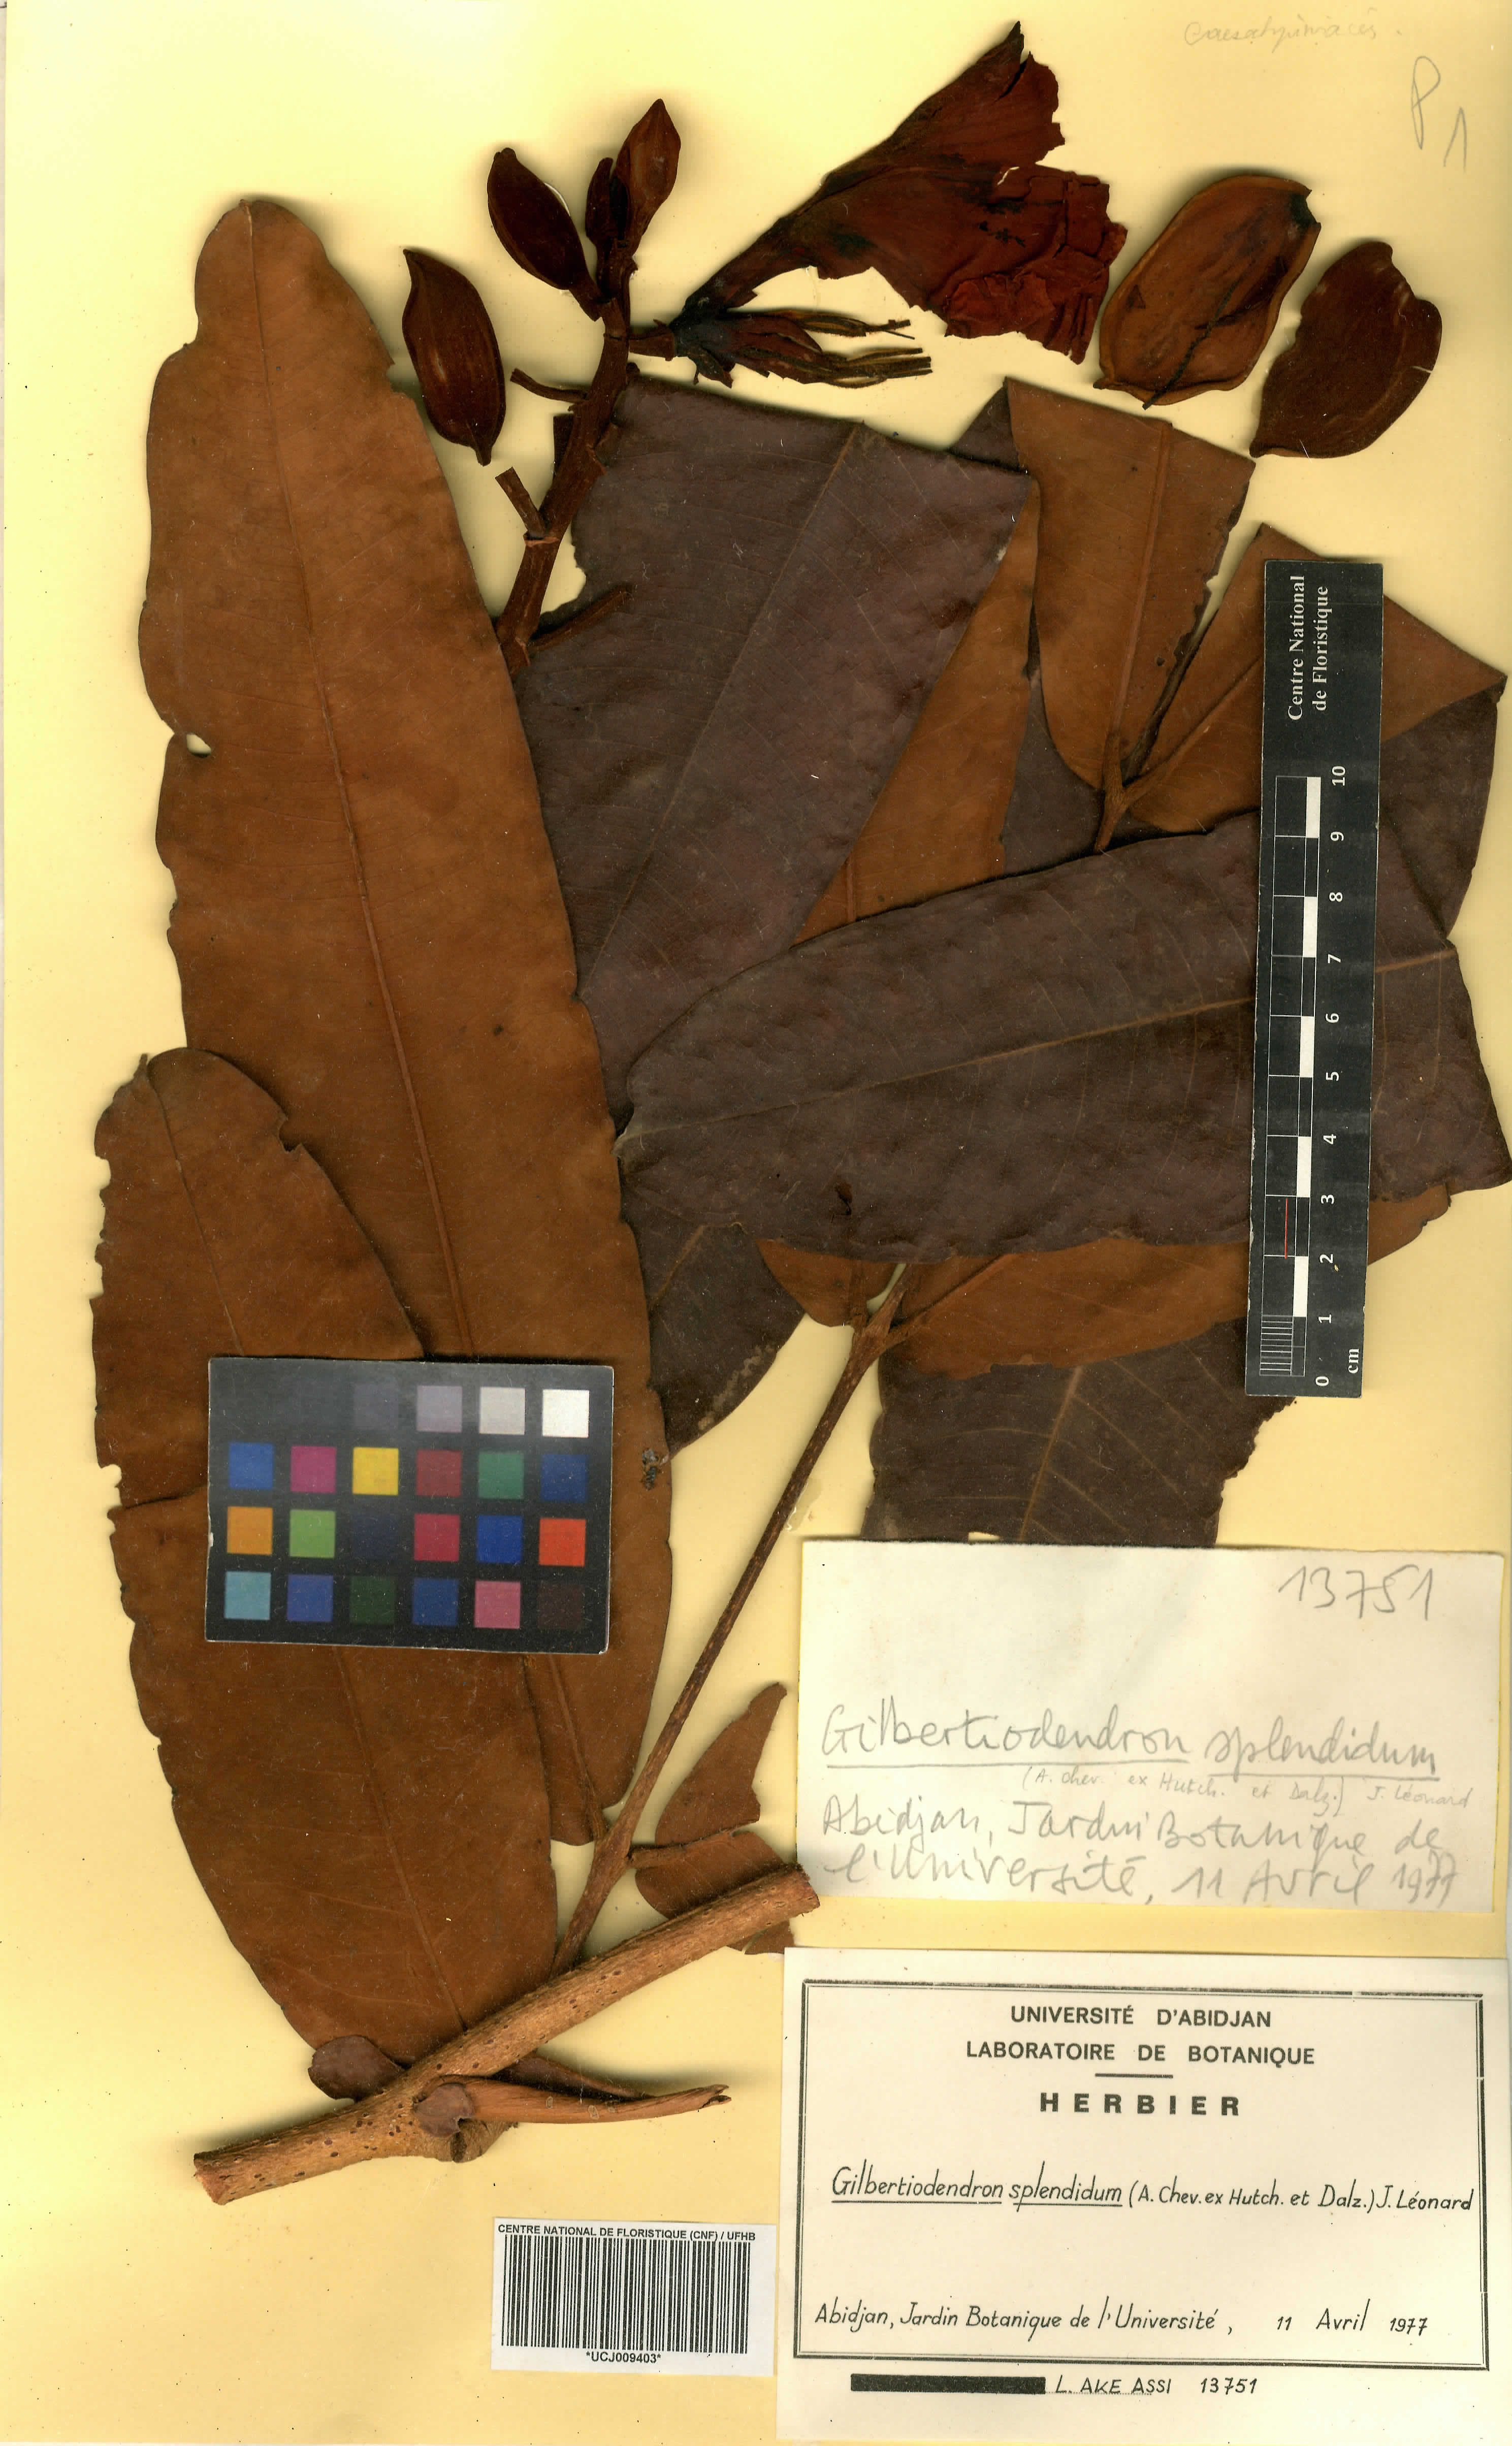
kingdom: Plantae
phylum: Tracheophyta
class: Magnoliopsida
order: Fabales
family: Fabaceae
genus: Gilbertiodendron
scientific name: Gilbertiodendron splendidum
